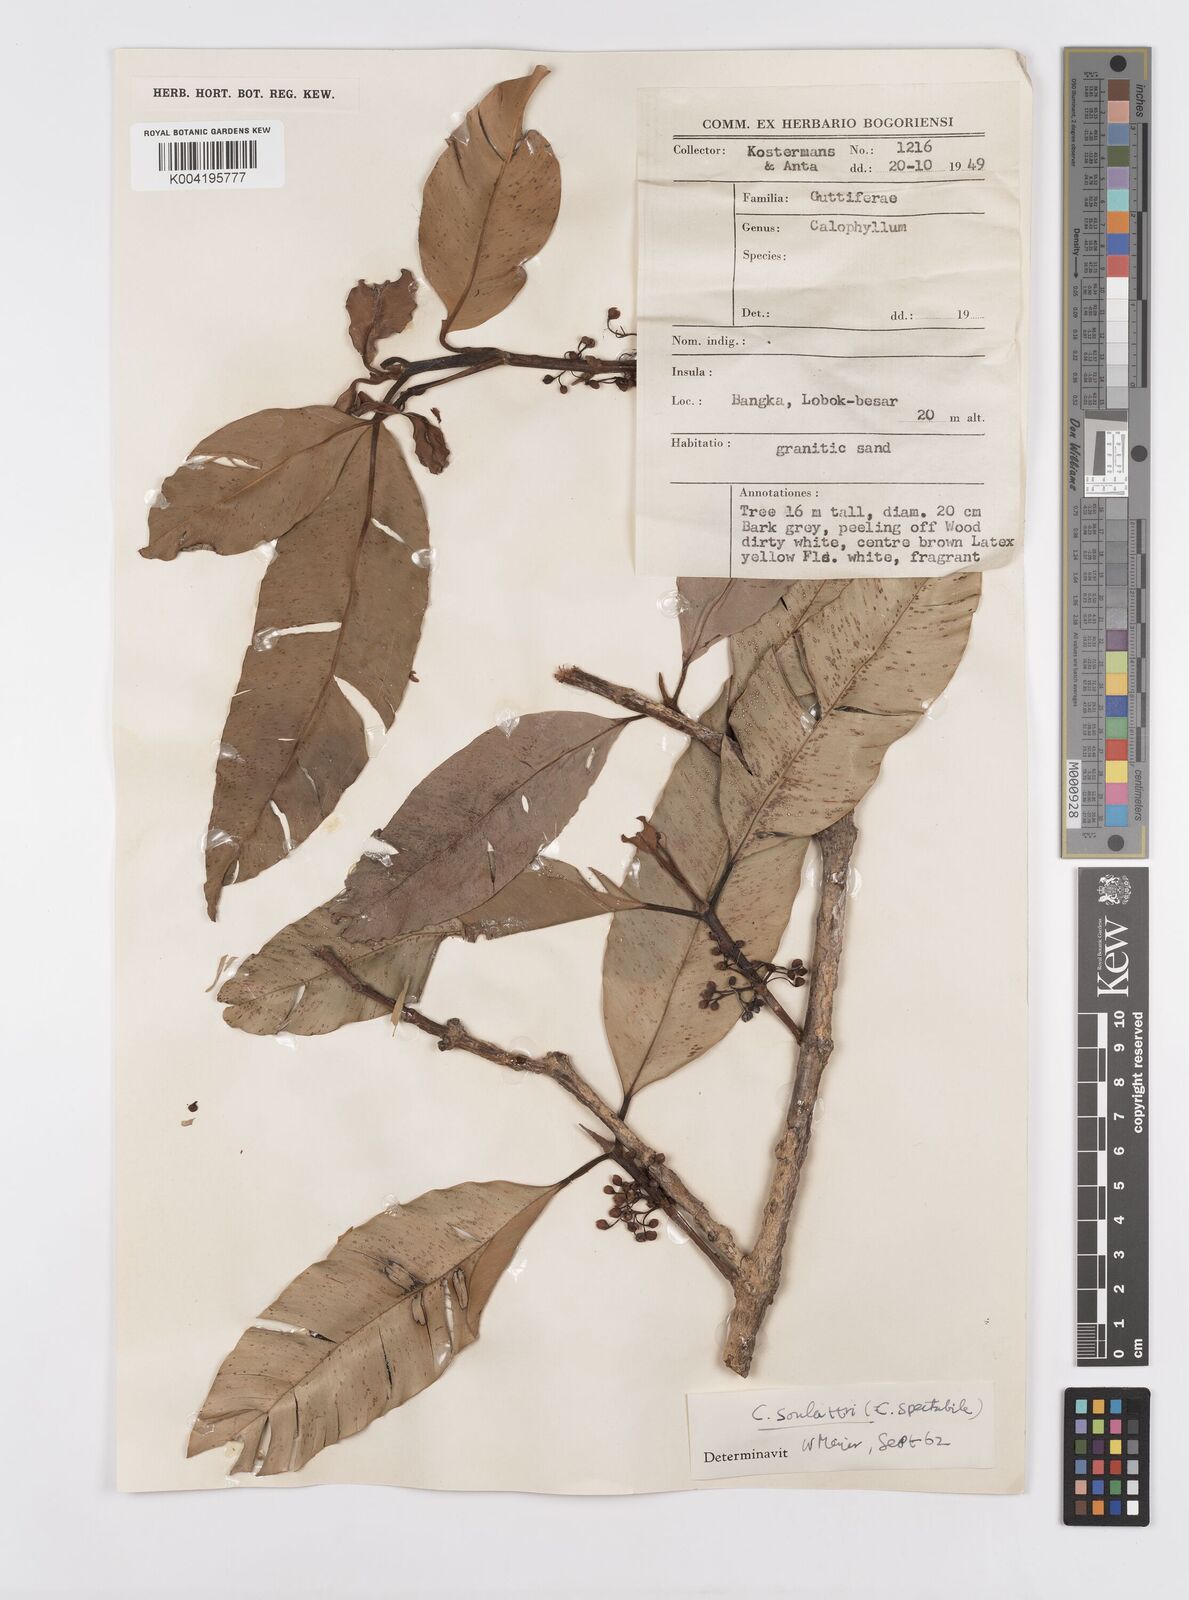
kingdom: Plantae
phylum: Tracheophyta
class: Magnoliopsida
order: Malpighiales
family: Calophyllaceae
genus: Calophyllum
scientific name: Calophyllum soulattri
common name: Bitangoor boonot
